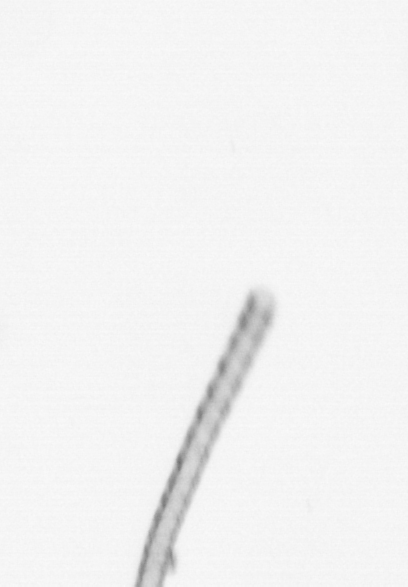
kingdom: Chromista
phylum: Ochrophyta
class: Bacillariophyceae
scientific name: Bacillariophyceae
